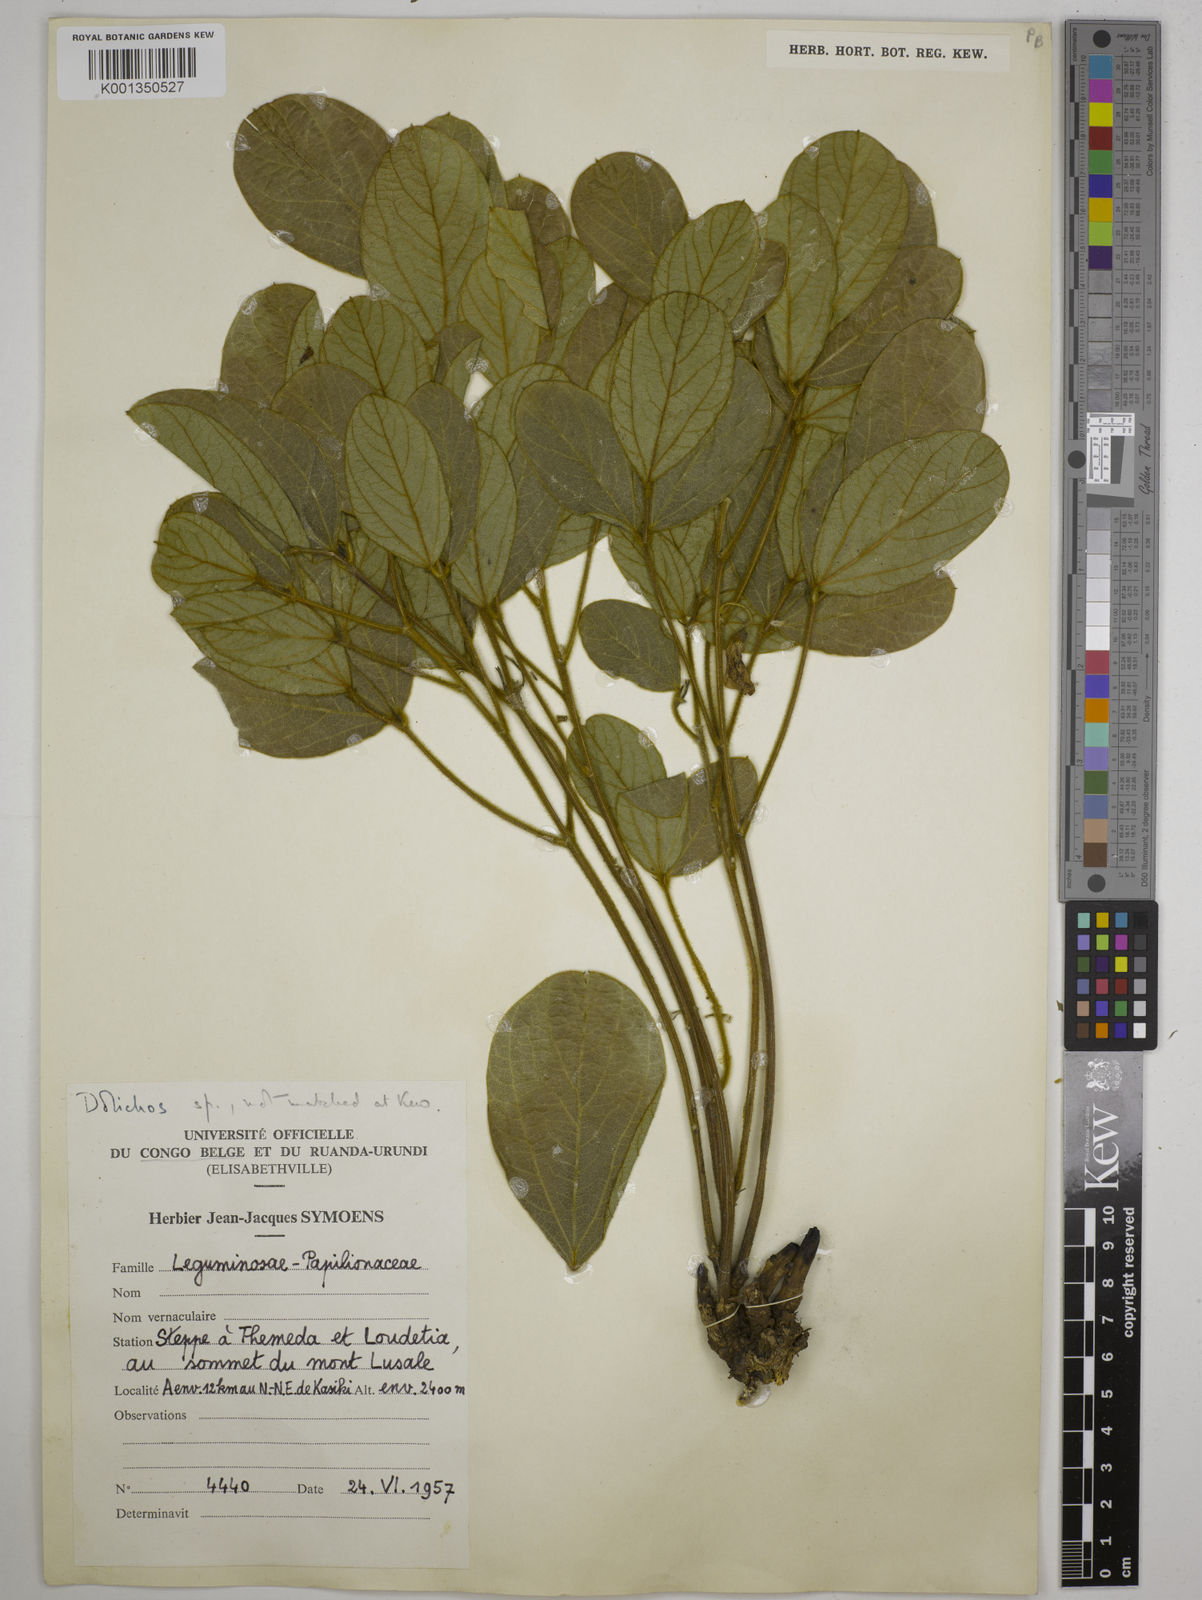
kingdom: Plantae
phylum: Tracheophyta
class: Magnoliopsida
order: Fabales
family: Fabaceae
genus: Dolichos
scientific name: Dolichos
